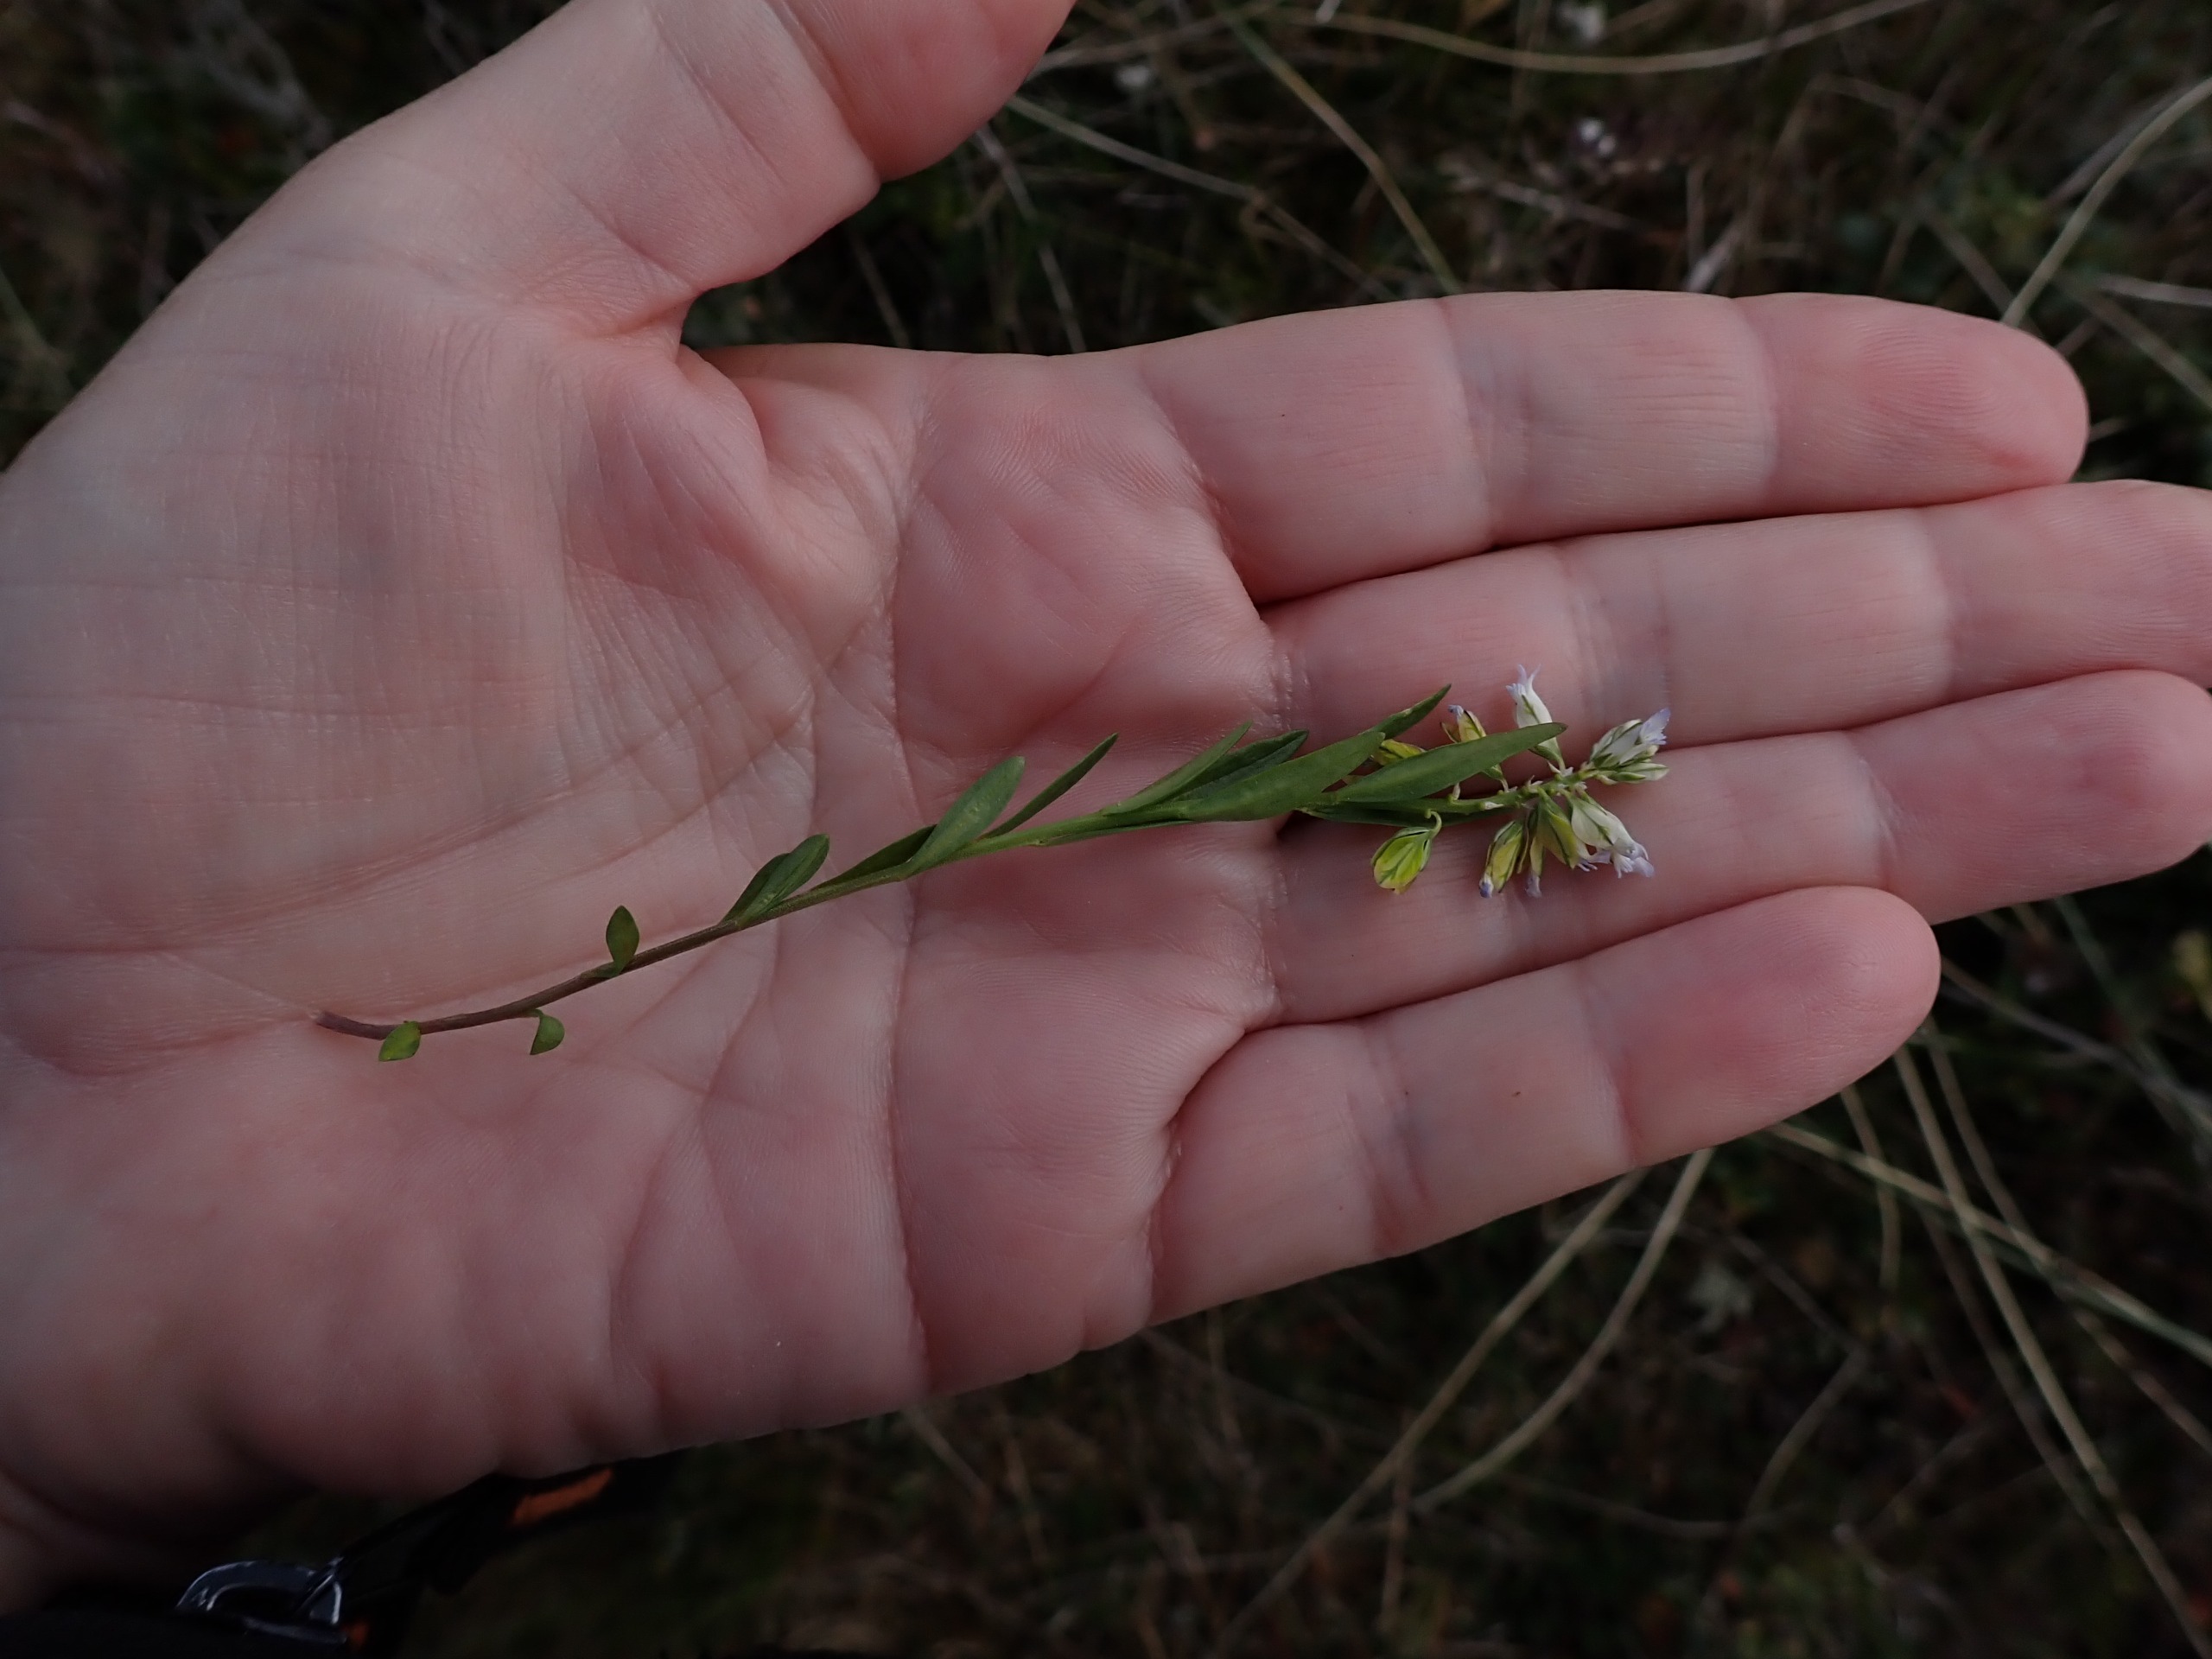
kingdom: Plantae
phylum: Tracheophyta
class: Magnoliopsida
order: Fabales
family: Polygalaceae
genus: Polygala
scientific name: Polygala vulgaris
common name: Almindelig mælkeurt
